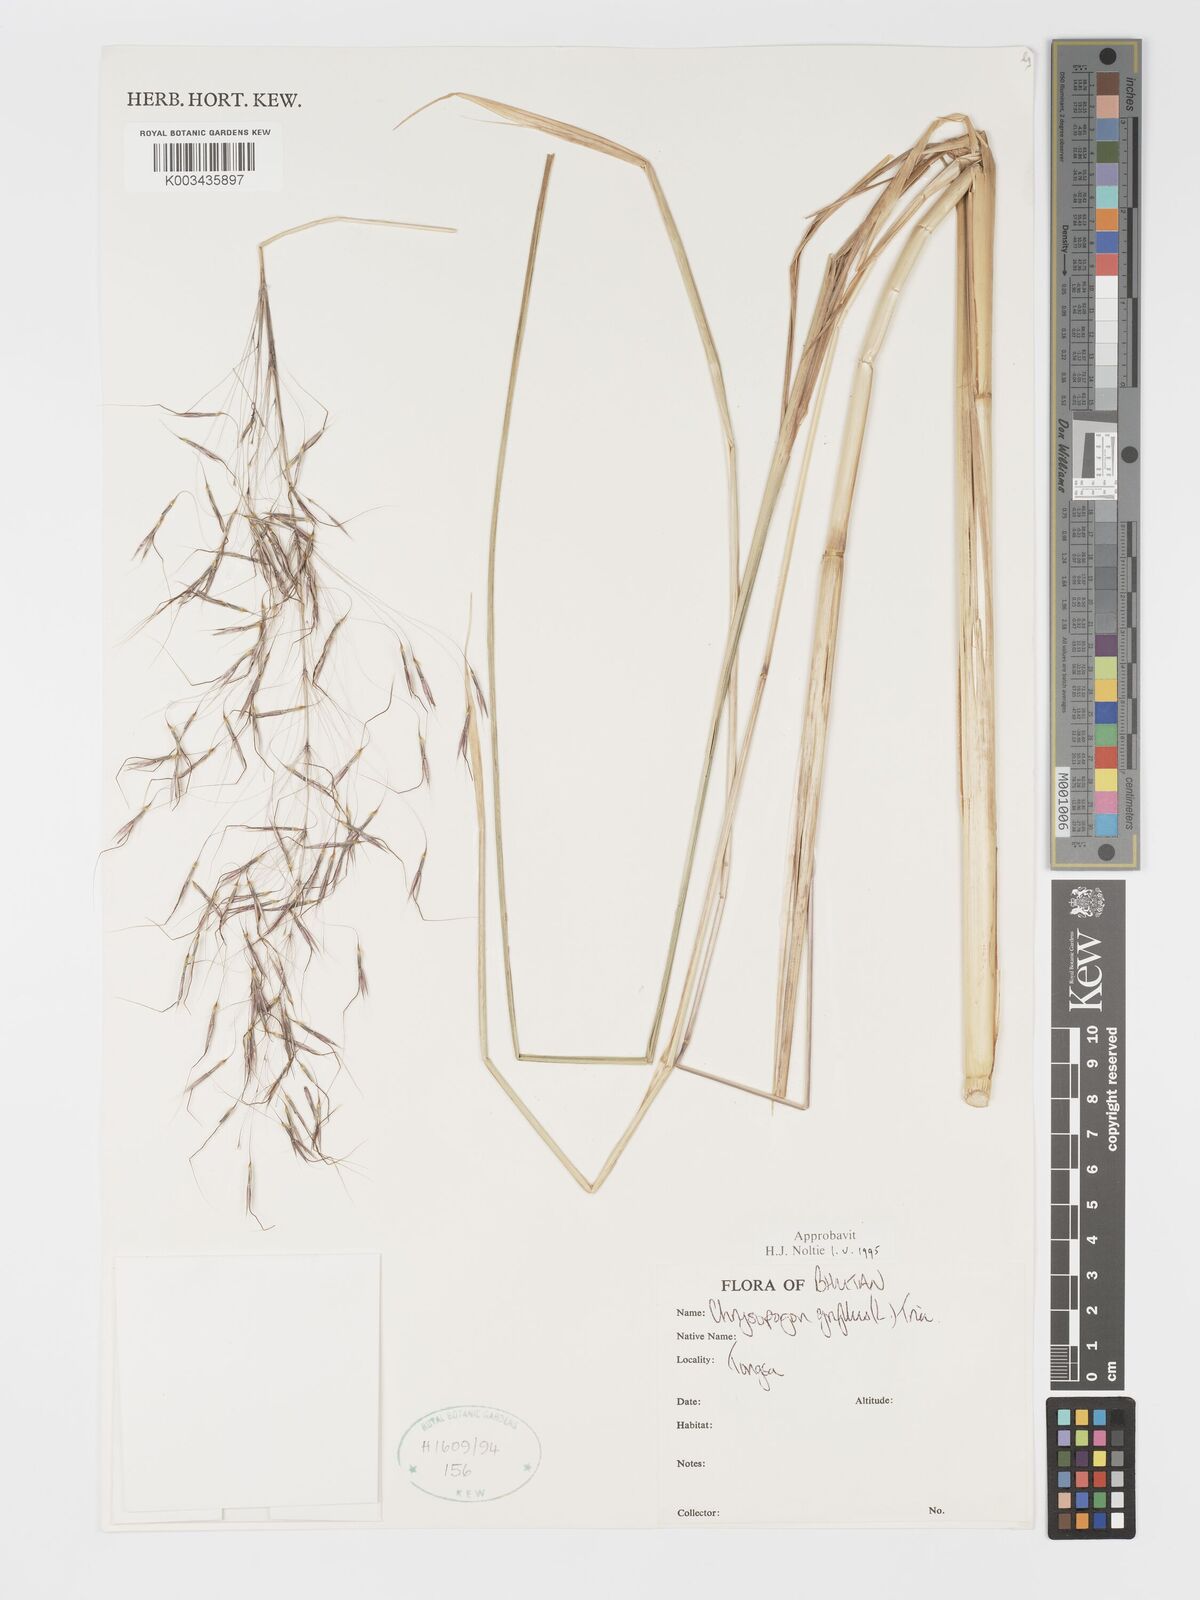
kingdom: Plantae
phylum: Tracheophyta
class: Liliopsida
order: Poales
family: Poaceae
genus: Chrysopogon
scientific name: Chrysopogon gryllus
